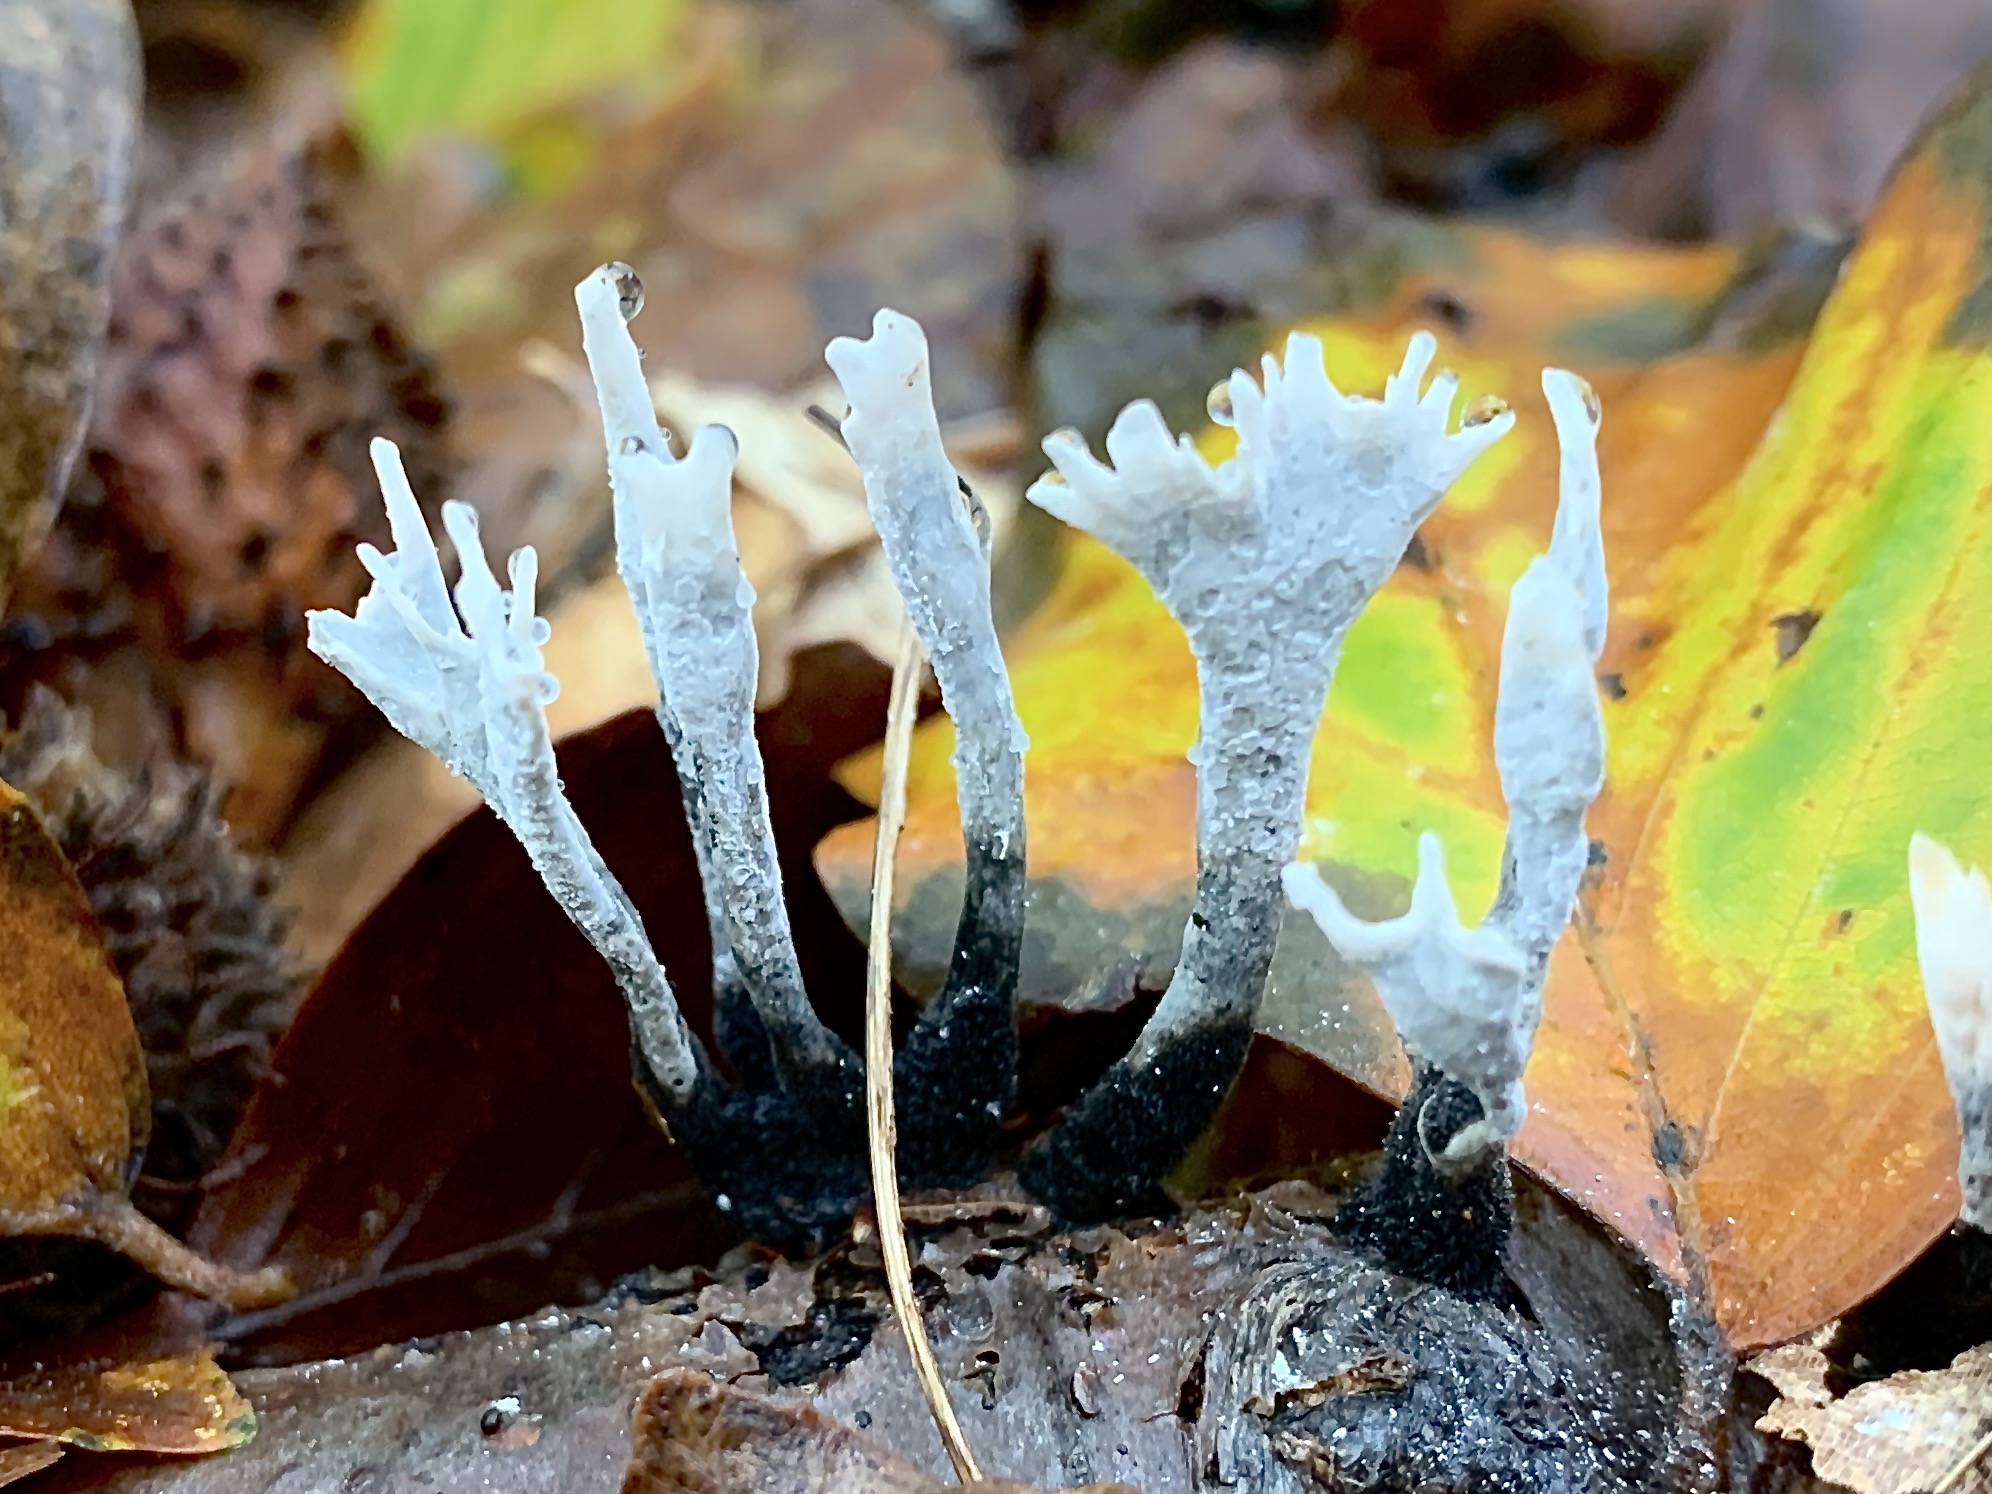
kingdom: Fungi
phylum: Ascomycota
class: Sordariomycetes
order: Xylariales
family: Xylariaceae
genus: Xylaria
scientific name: Xylaria hypoxylon
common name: grenet stødsvamp
